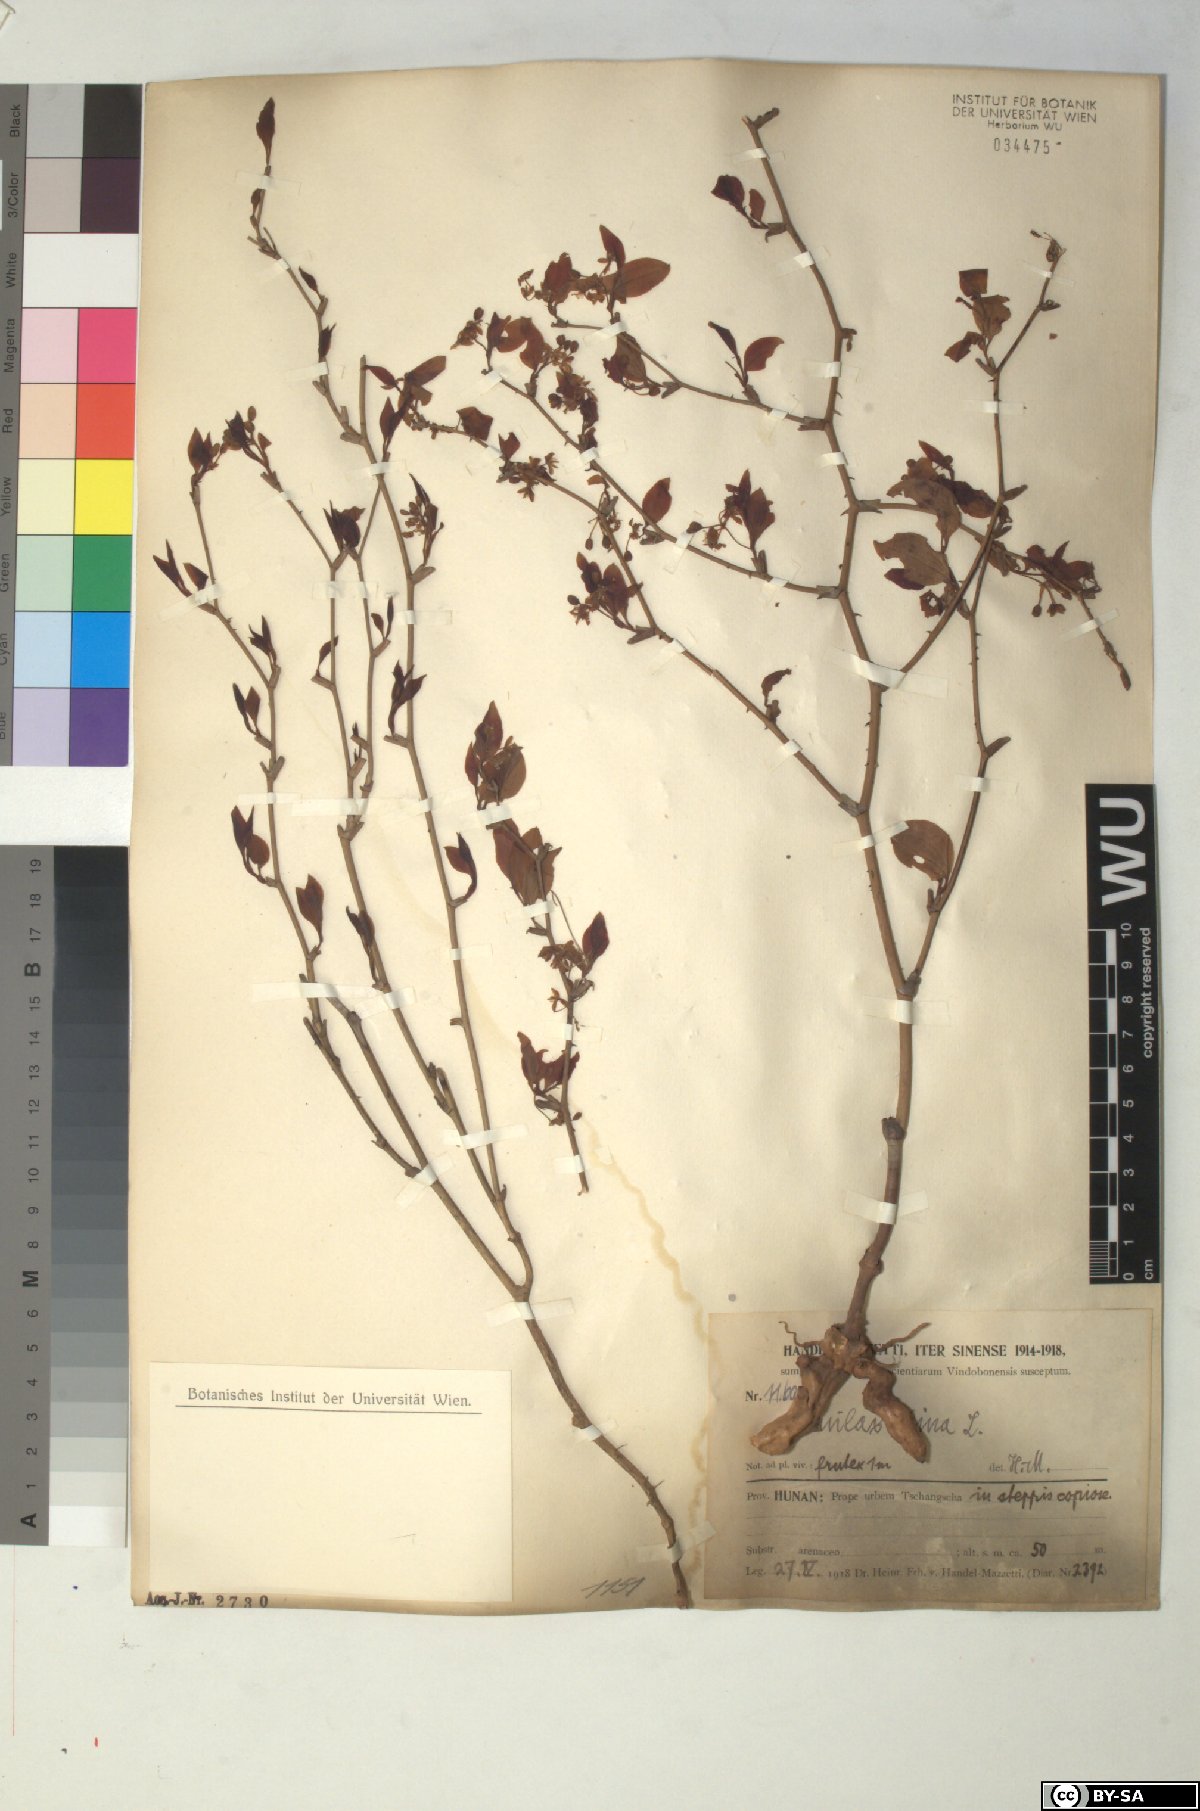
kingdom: Plantae
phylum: Tracheophyta
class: Liliopsida
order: Liliales
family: Smilacaceae
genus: Smilax
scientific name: Smilax china
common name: Chinaroot
